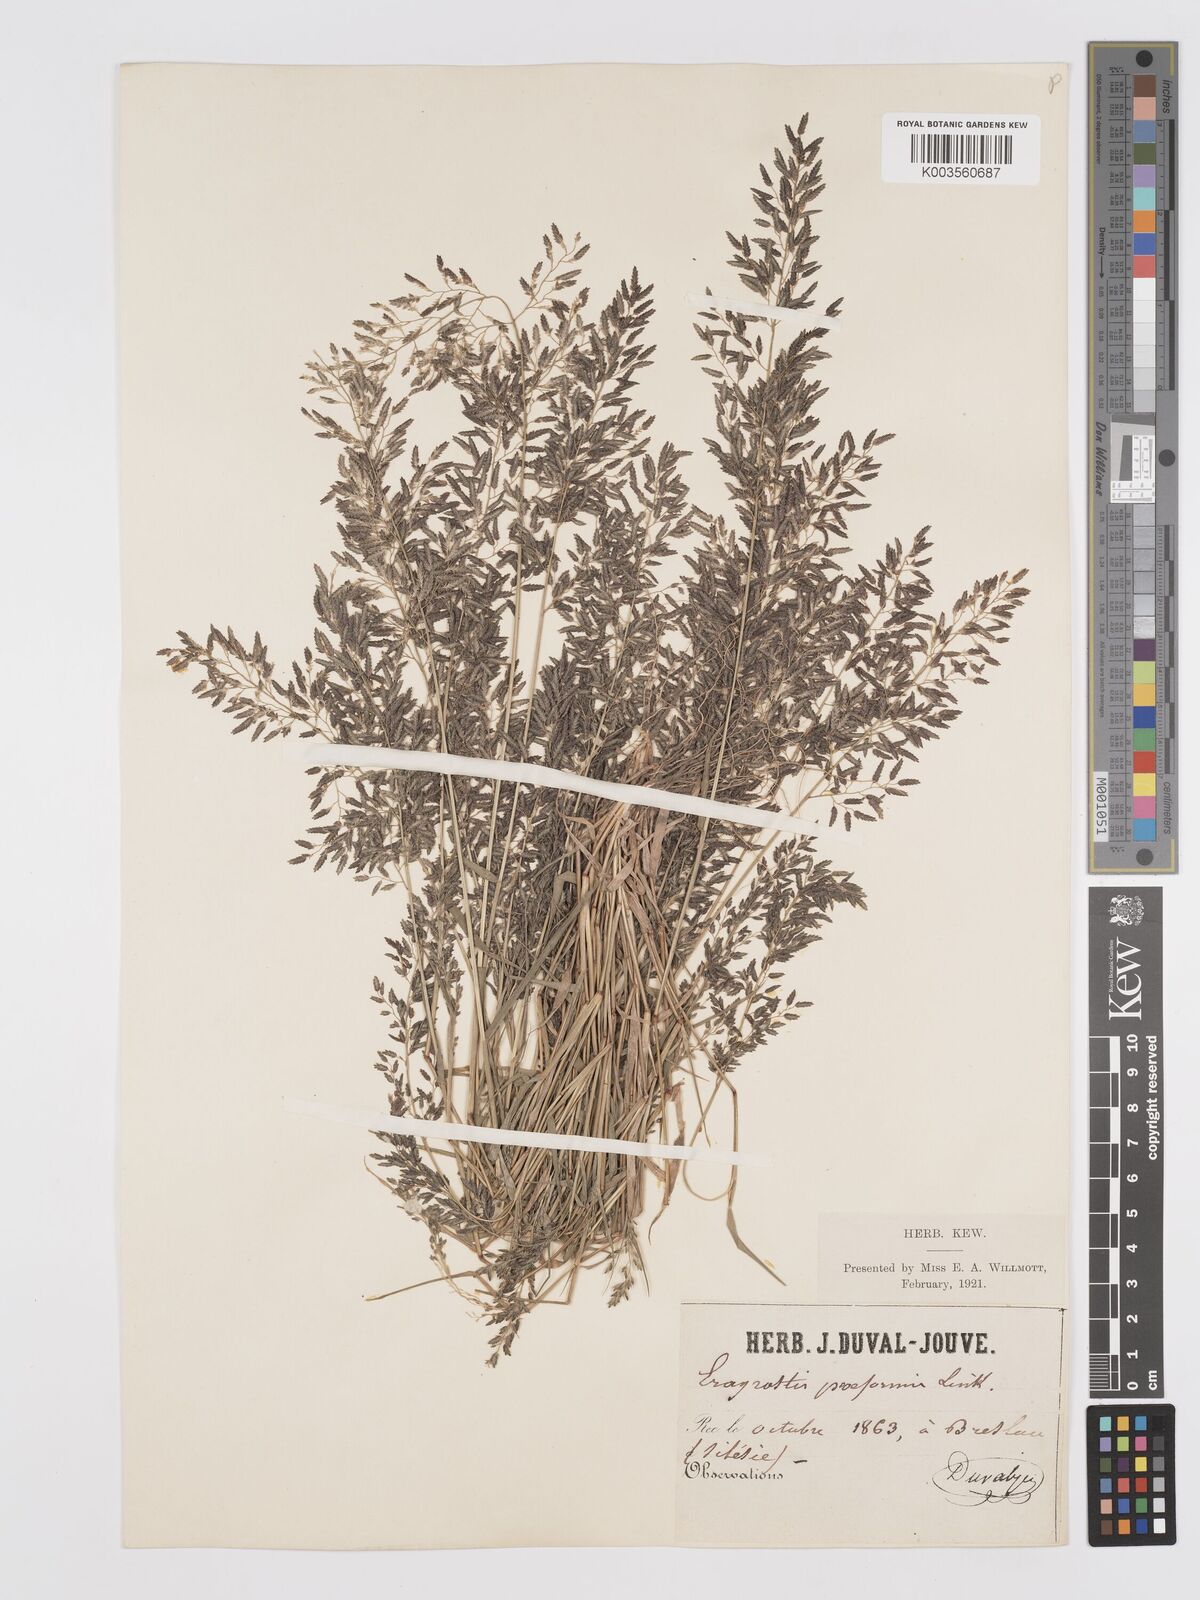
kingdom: Plantae
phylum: Tracheophyta
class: Liliopsida
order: Poales
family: Poaceae
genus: Eragrostis
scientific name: Eragrostis minor
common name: Small love-grass
